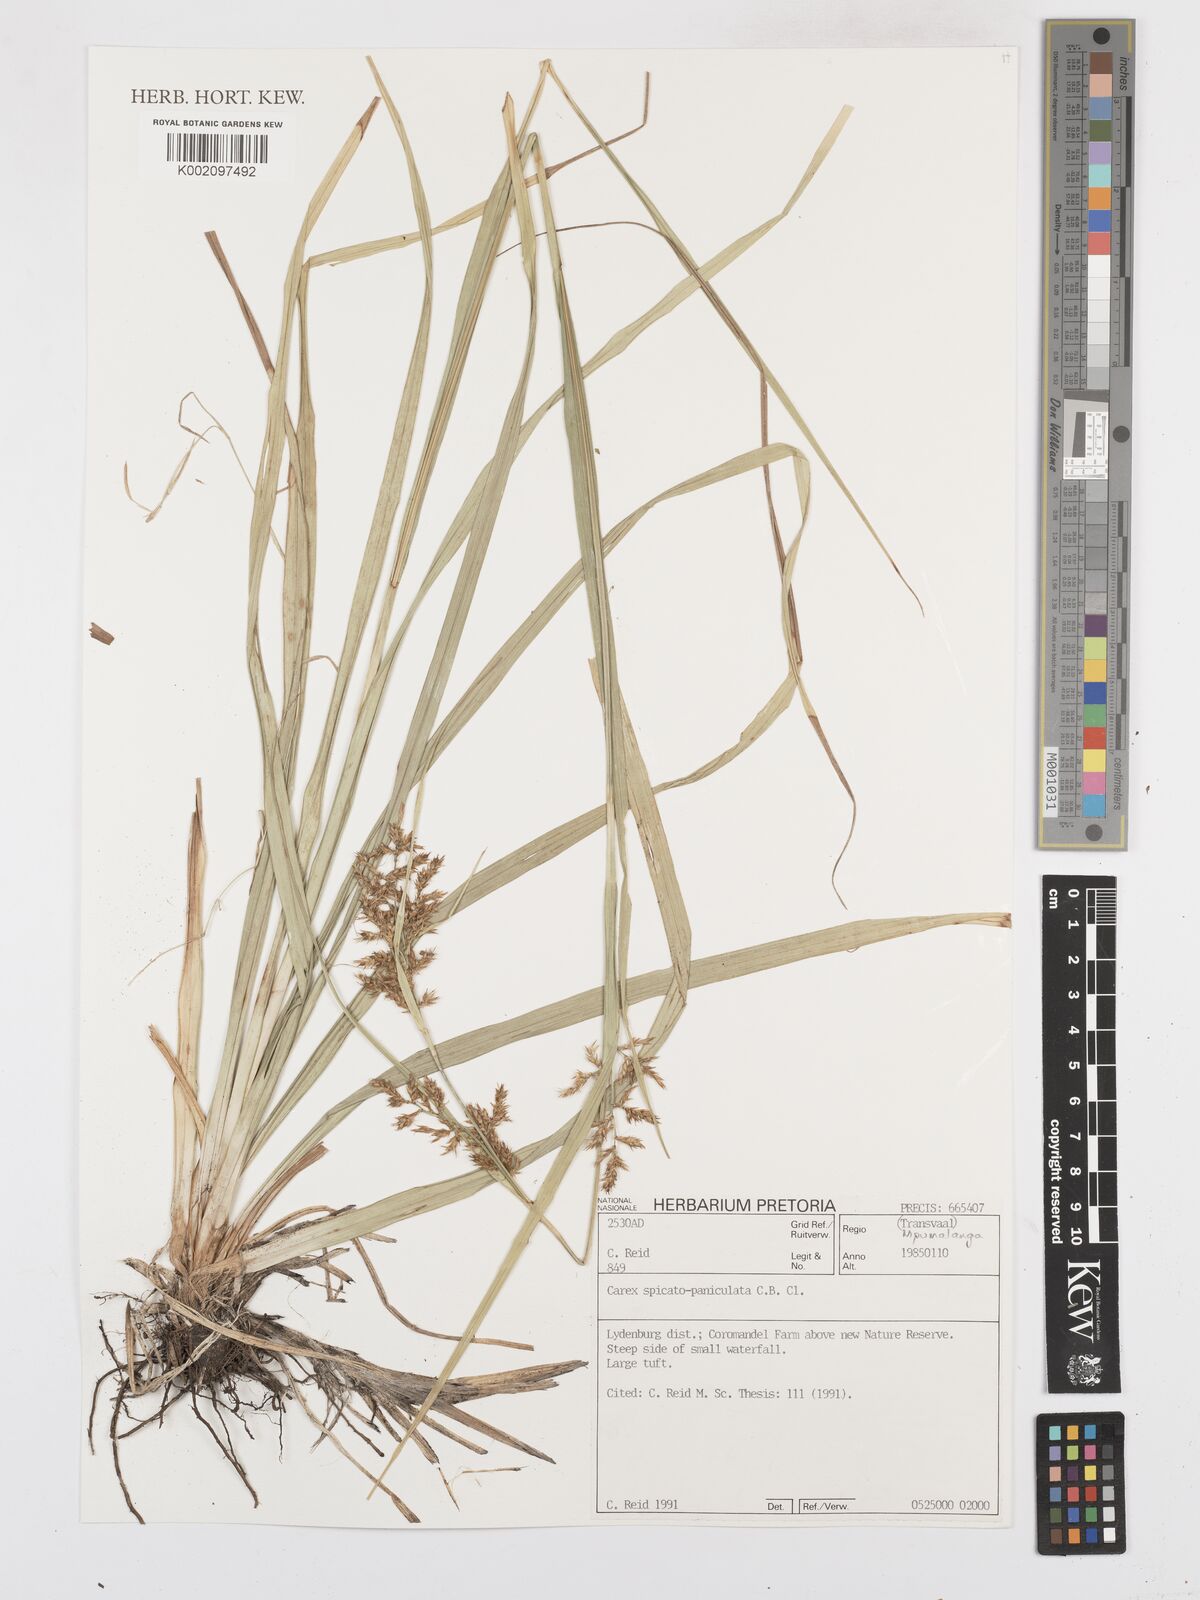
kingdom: Plantae
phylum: Tracheophyta
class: Liliopsida
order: Poales
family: Cyperaceae
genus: Carex
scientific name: Carex spicatopaniculata
